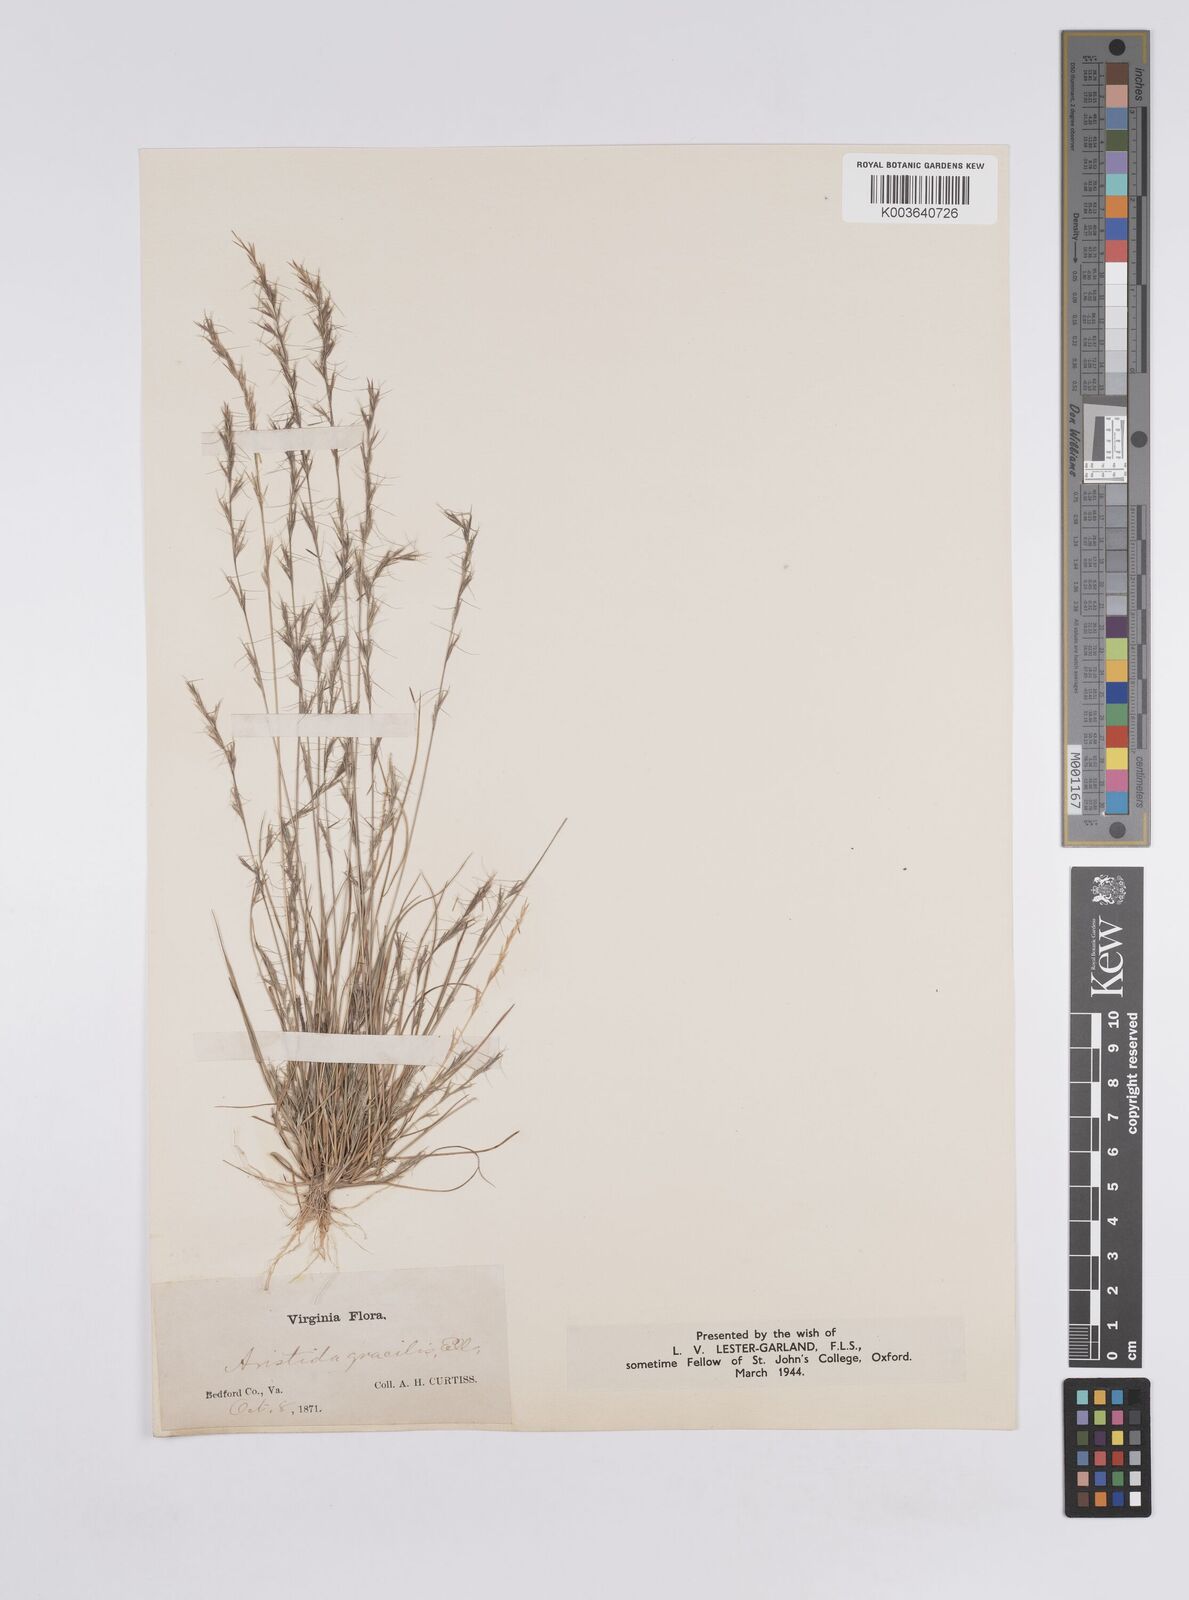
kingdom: Plantae
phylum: Tracheophyta
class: Liliopsida
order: Poales
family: Poaceae
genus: Aristida
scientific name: Aristida longespica
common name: Long-spiked triple-awned grass
